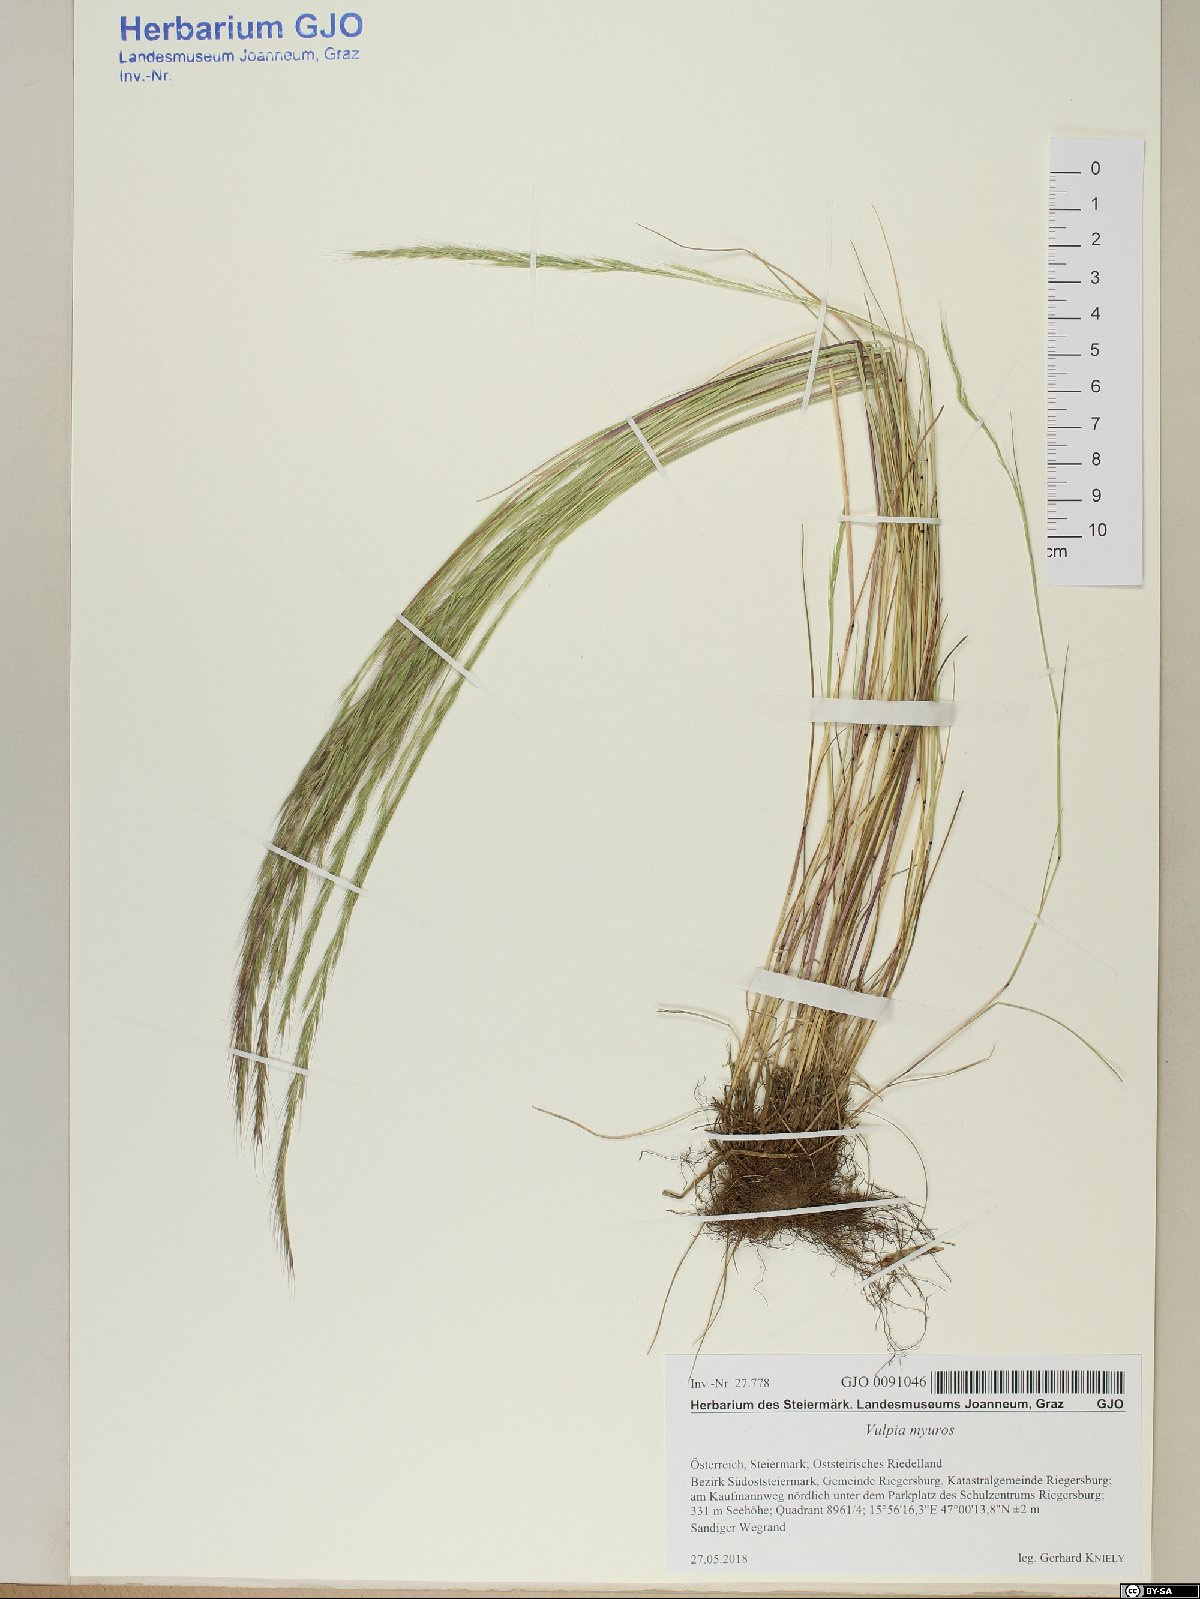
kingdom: Plantae
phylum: Tracheophyta
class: Liliopsida
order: Poales
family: Poaceae
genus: Festuca
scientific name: Festuca myuros
